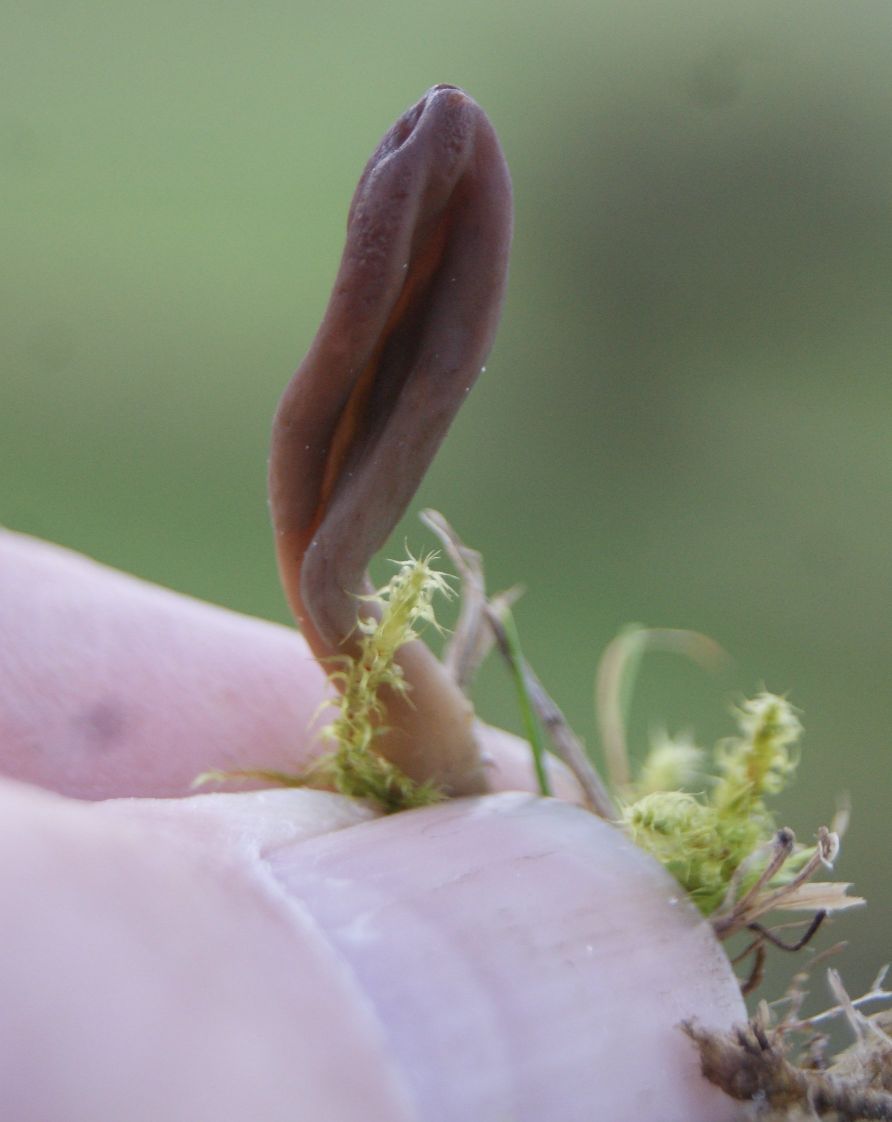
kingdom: Fungi
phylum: Ascomycota
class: Leotiomycetes
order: Leotiales
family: Leotiaceae
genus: Microglossum
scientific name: Microglossum olivaceum
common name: olivenbrun farvetunge
